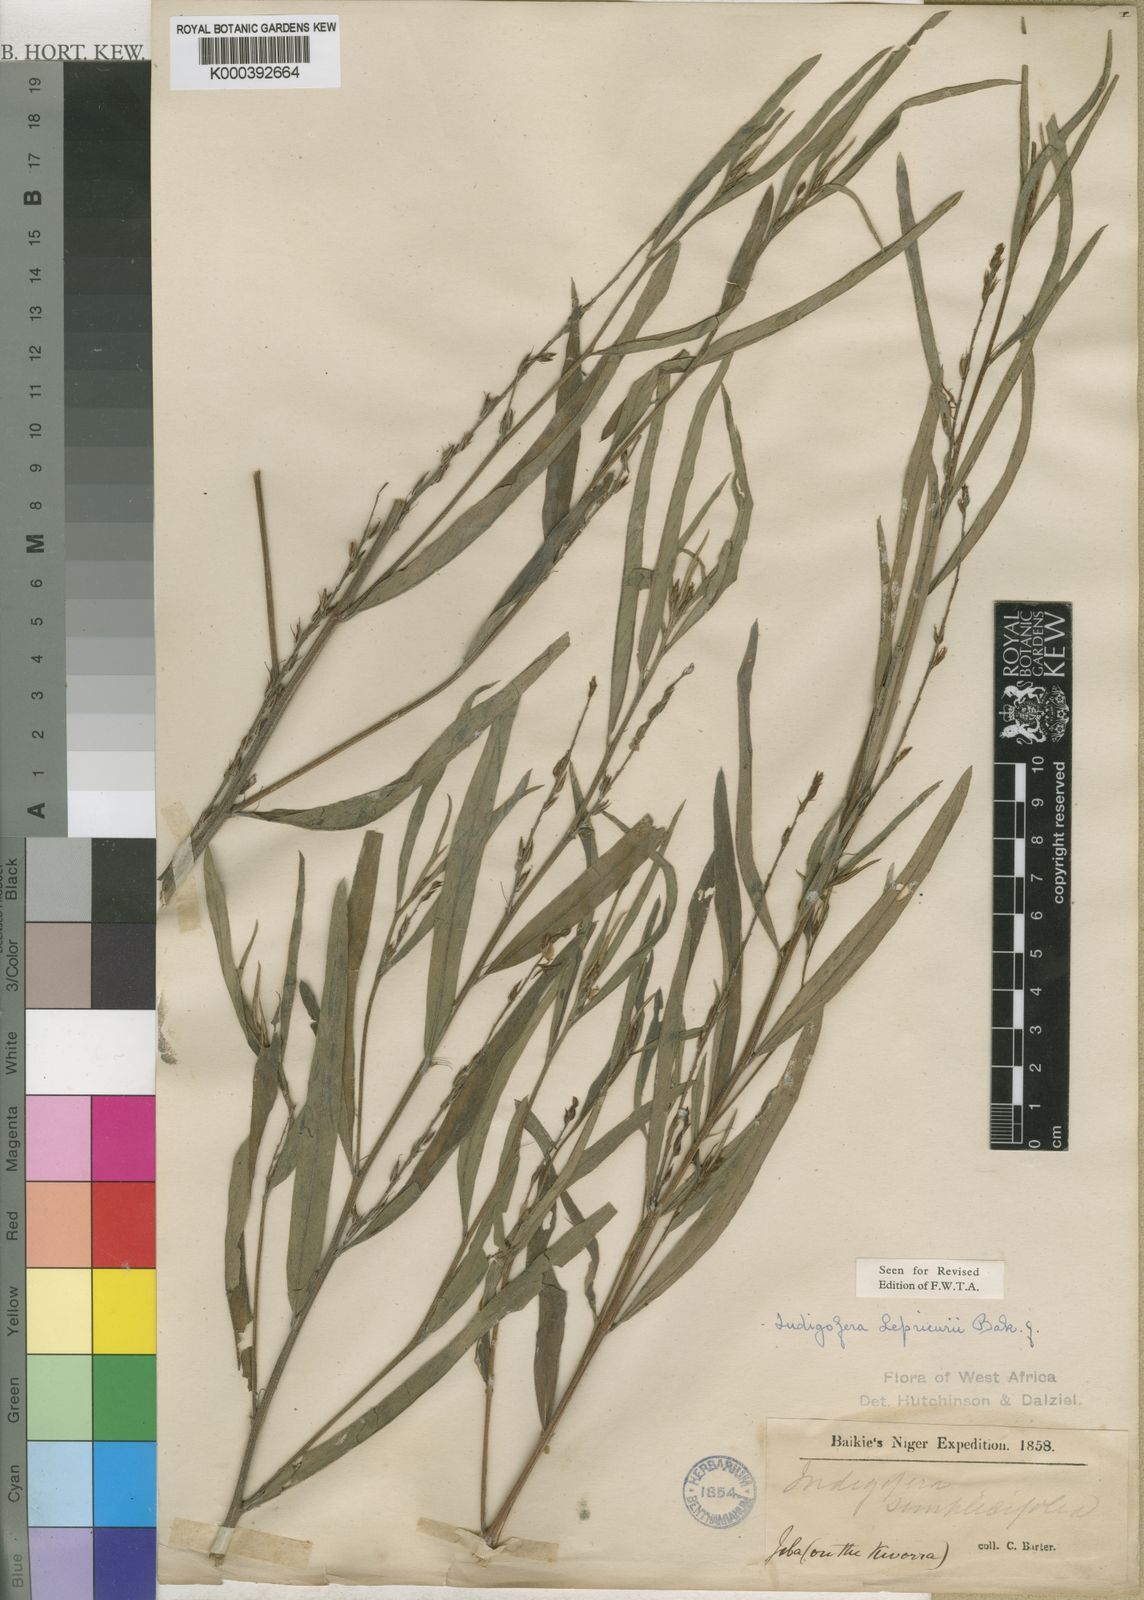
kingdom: Plantae
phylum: Tracheophyta
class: Magnoliopsida
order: Fabales
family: Fabaceae
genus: Indigofera
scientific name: Indigofera leprieurii
